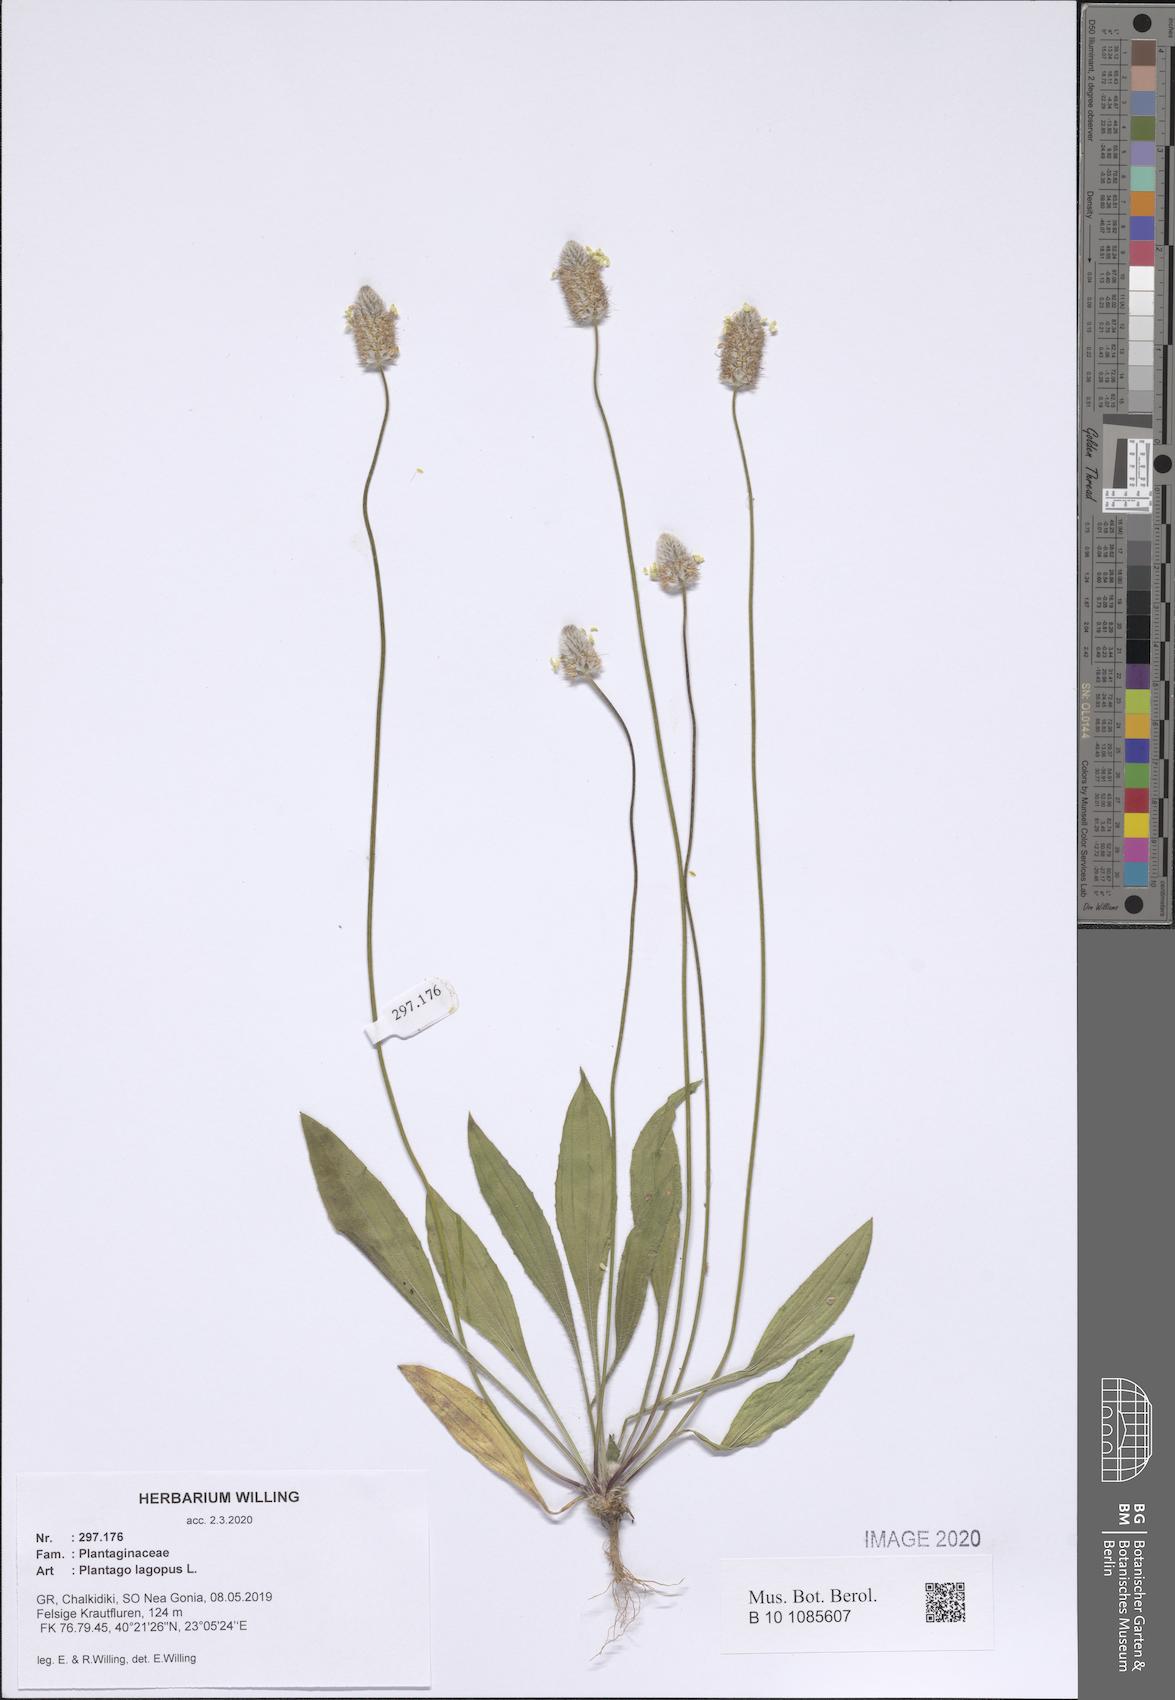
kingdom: Plantae
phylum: Tracheophyta
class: Magnoliopsida
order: Lamiales
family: Plantaginaceae
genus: Plantago
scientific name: Plantago lagopus
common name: Hare-foot plantain
